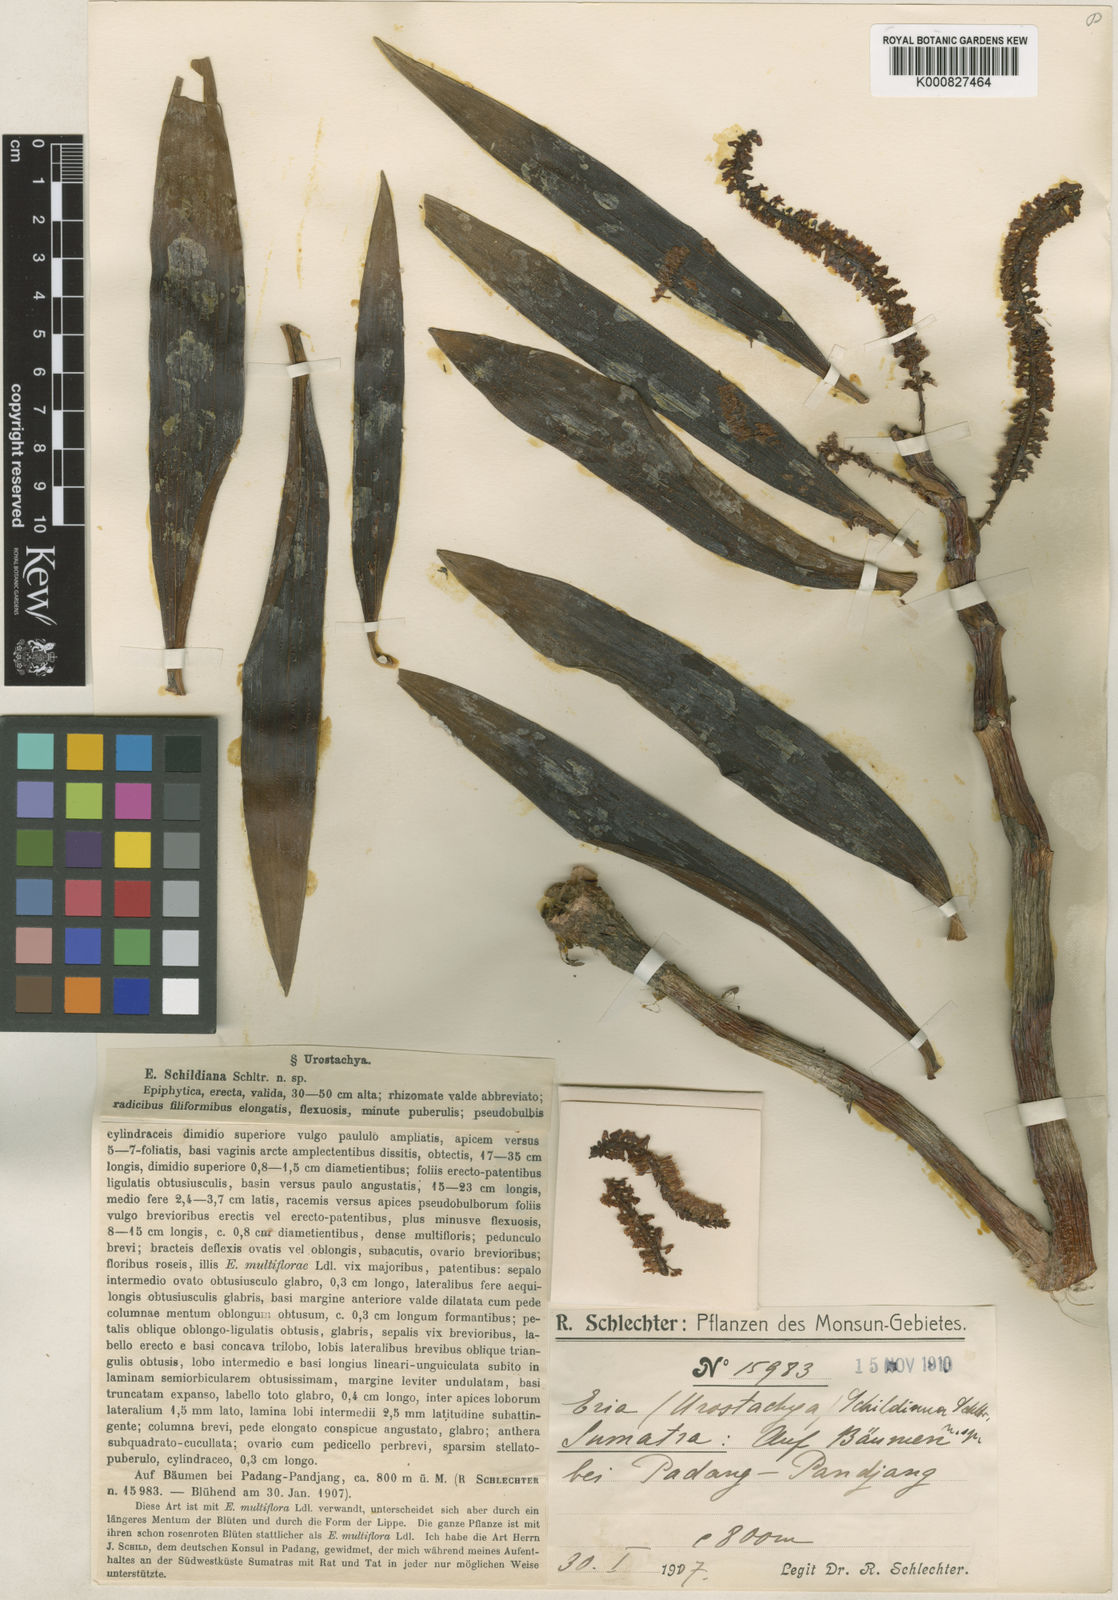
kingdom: Plantae
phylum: Tracheophyta
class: Liliopsida
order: Asparagales
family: Orchidaceae
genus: Pinalia
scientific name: Pinalia pachystachya
